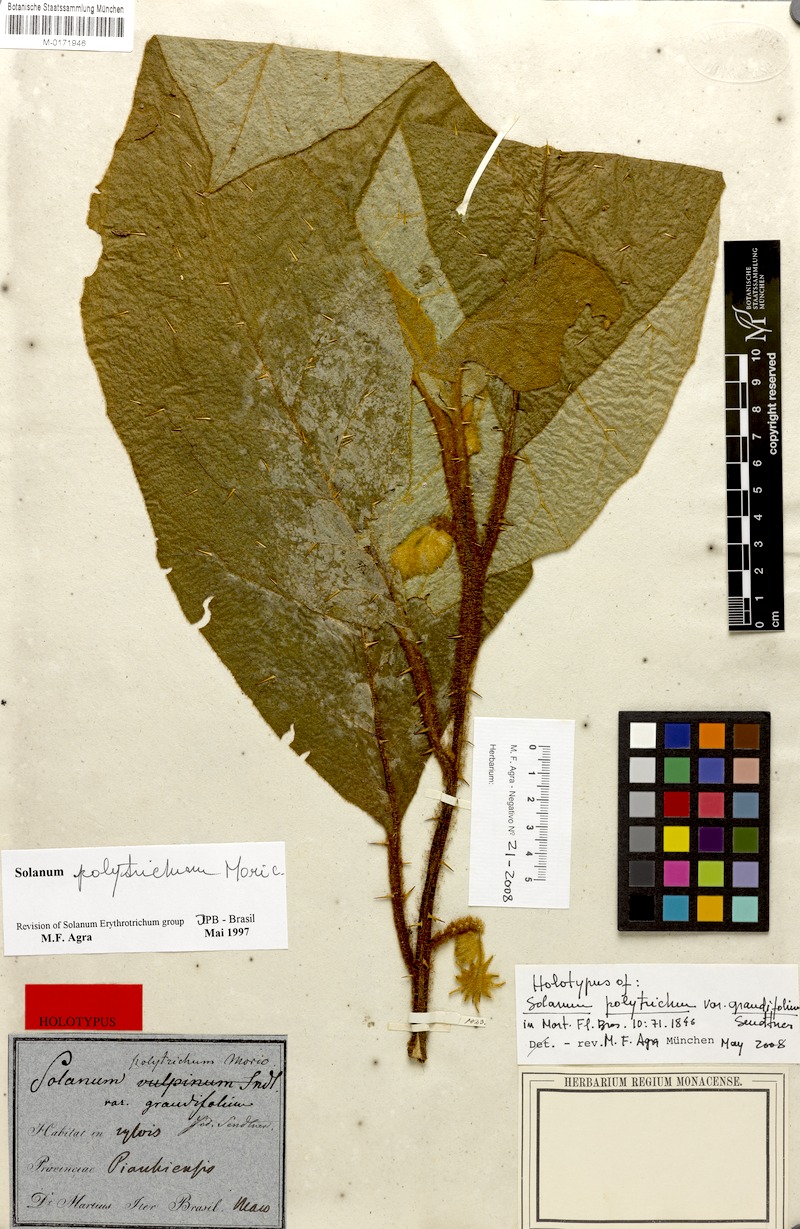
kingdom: Plantae
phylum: Tracheophyta
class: Magnoliopsida
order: Solanales
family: Solanaceae
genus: Solanum
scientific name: Solanum polytrichum
